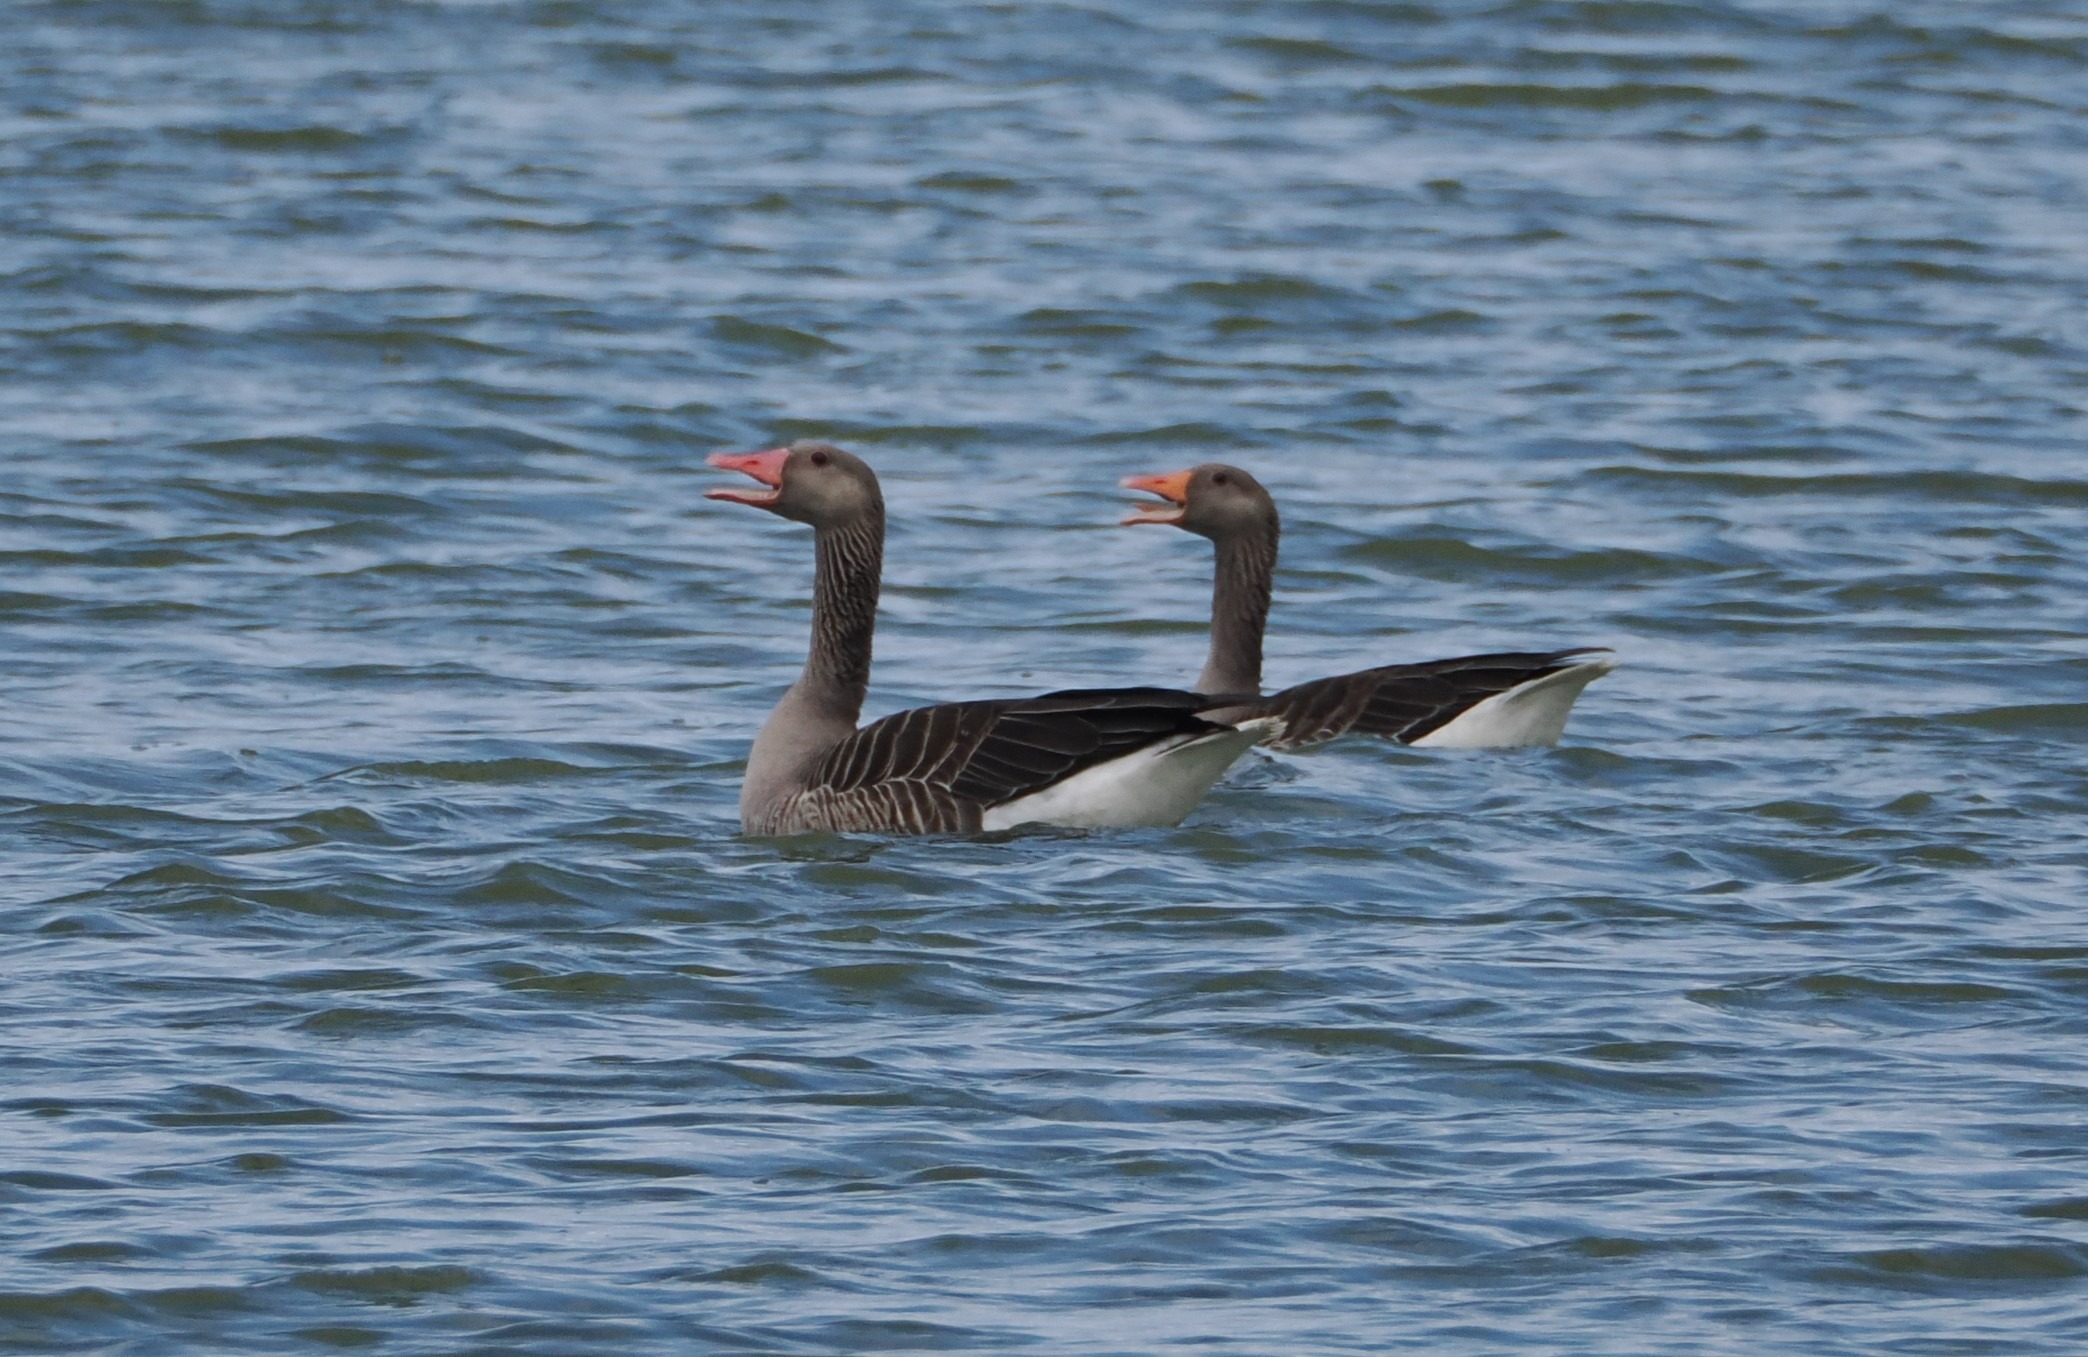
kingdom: Animalia
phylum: Chordata
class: Aves
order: Anseriformes
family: Anatidae
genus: Anser
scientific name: Anser anser
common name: Grågås
